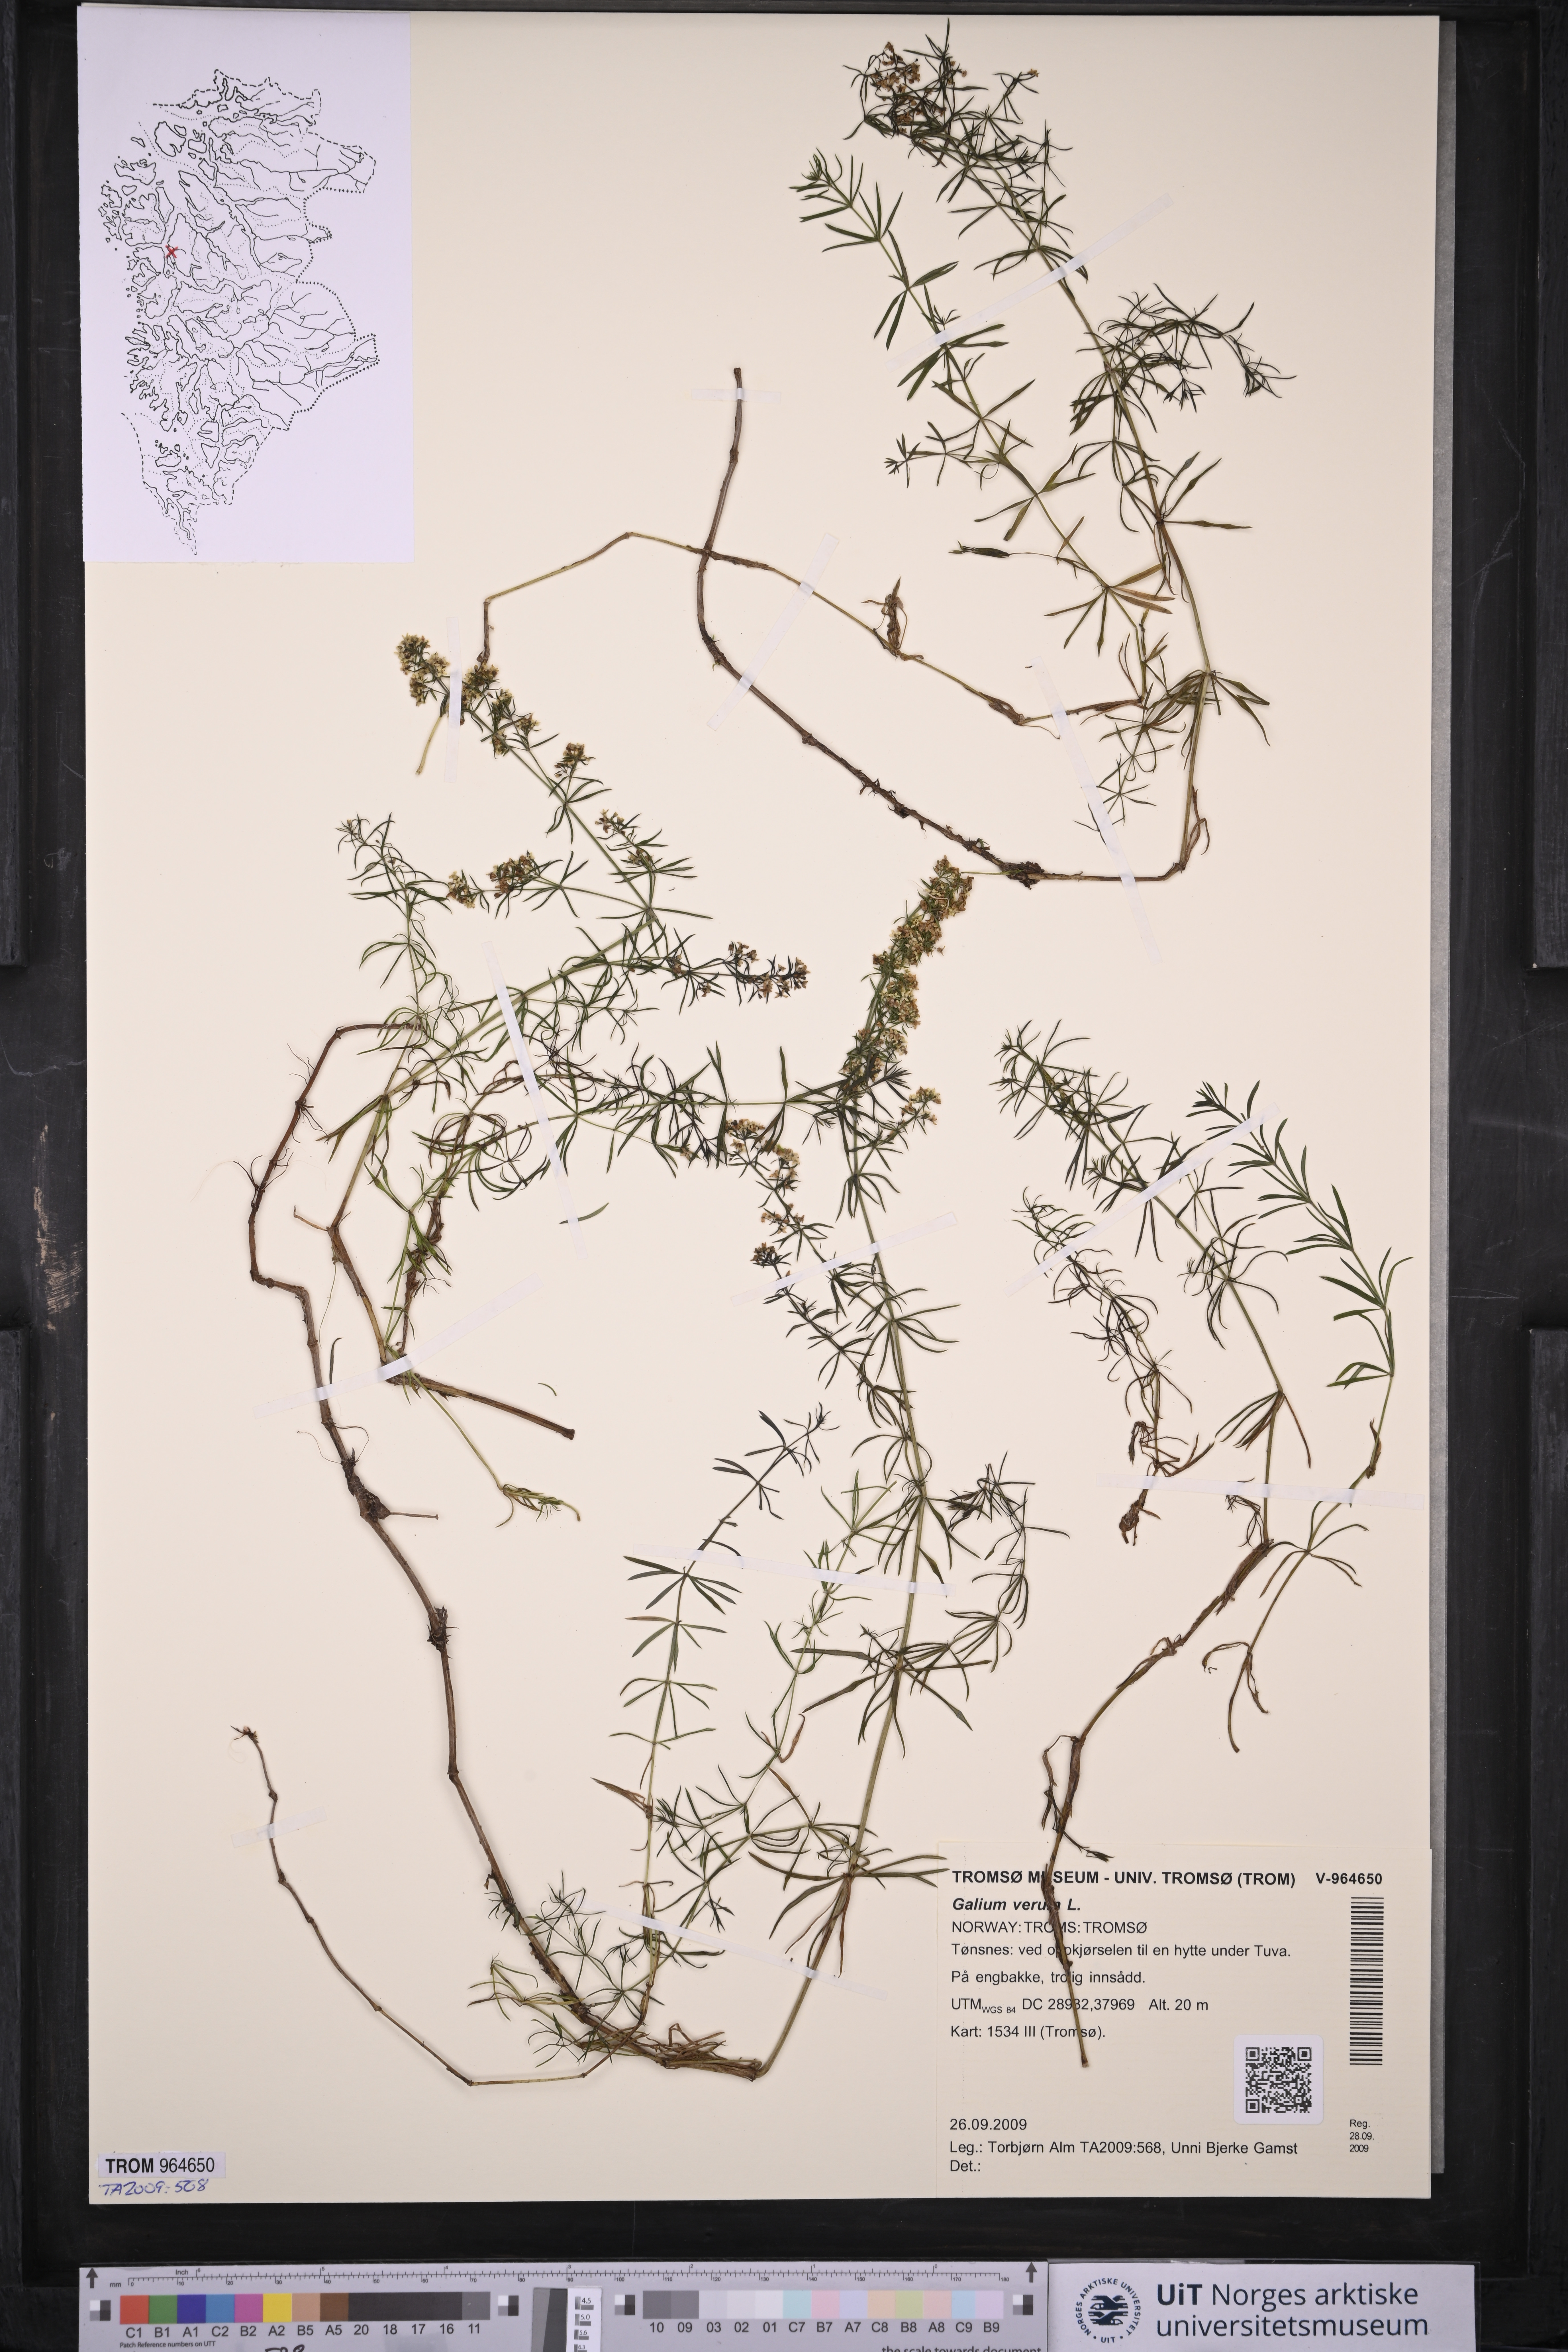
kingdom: Plantae
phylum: Tracheophyta
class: Magnoliopsida
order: Gentianales
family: Rubiaceae
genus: Galium
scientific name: Galium verum
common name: Lady's bedstraw
